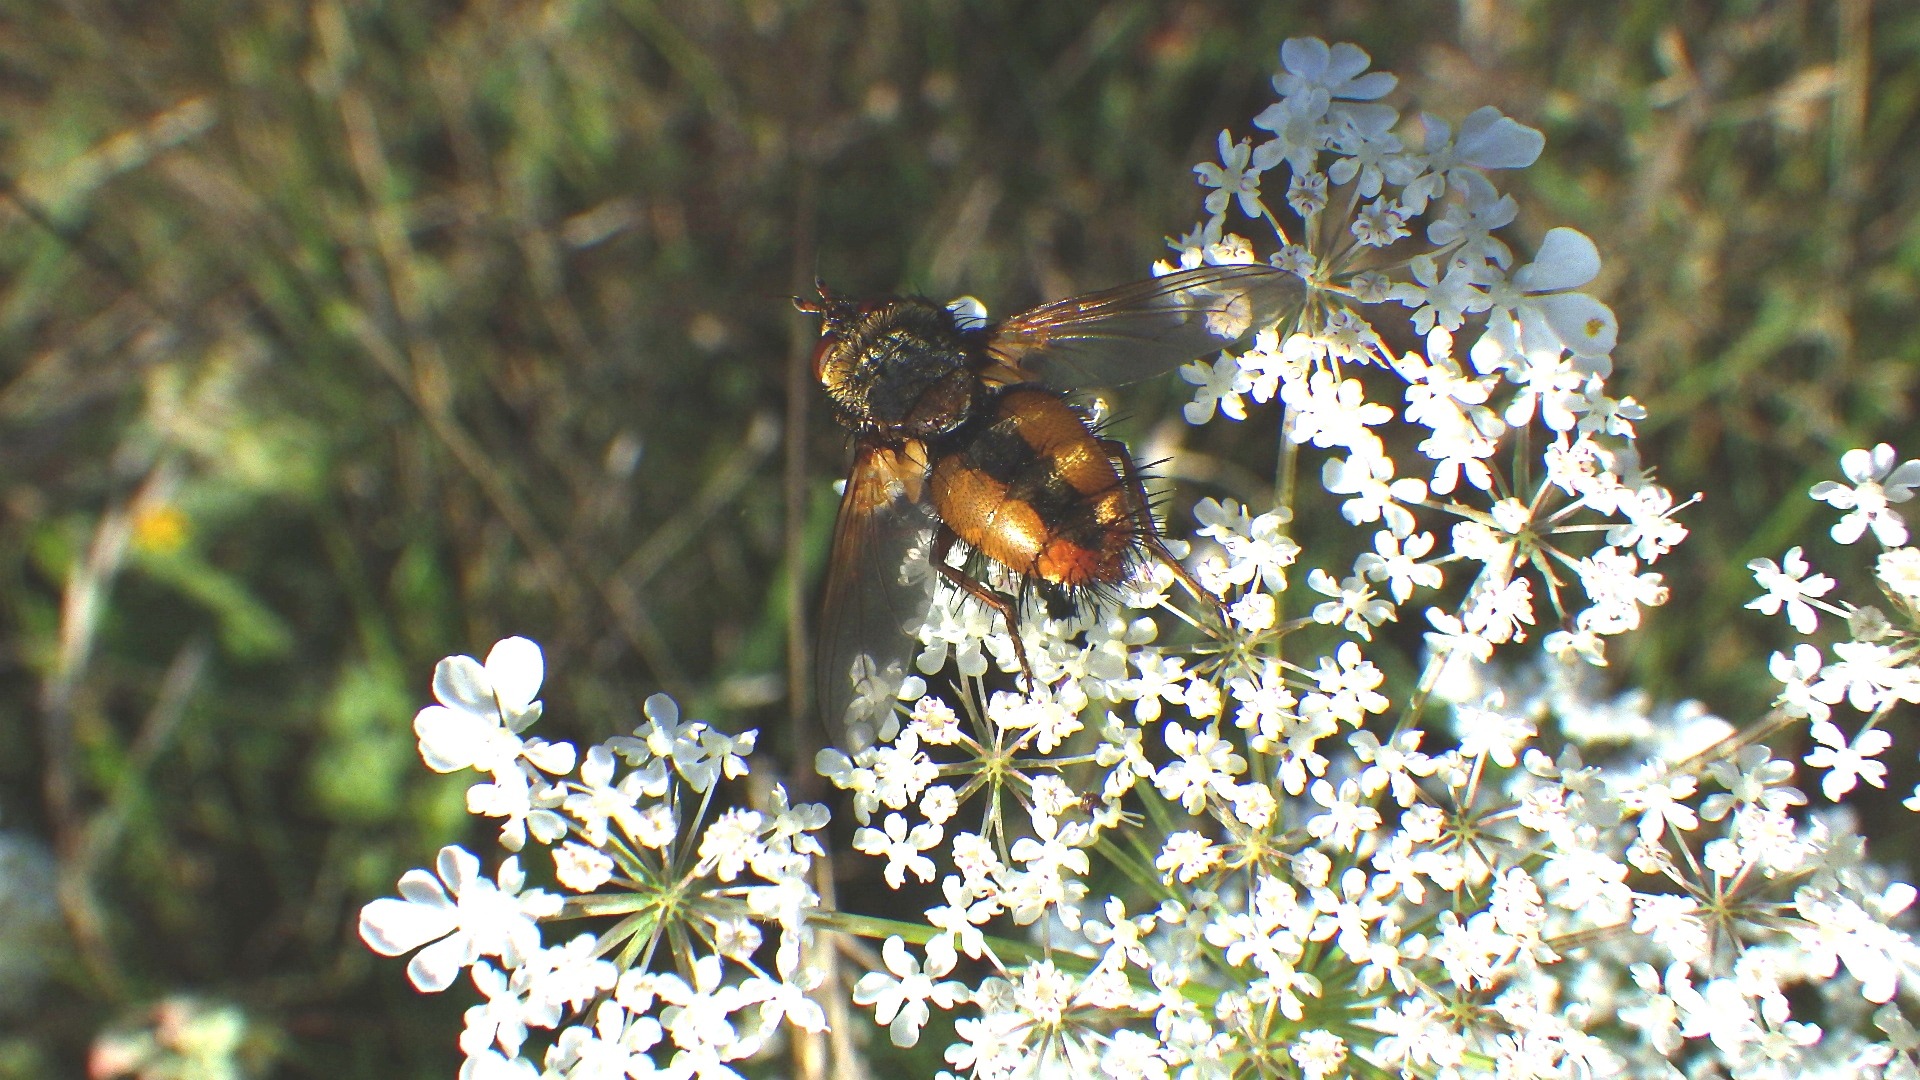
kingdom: Animalia
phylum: Arthropoda
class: Insecta
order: Diptera
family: Tachinidae
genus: Tachina
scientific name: Tachina fera
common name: Mellemfluen oskar
